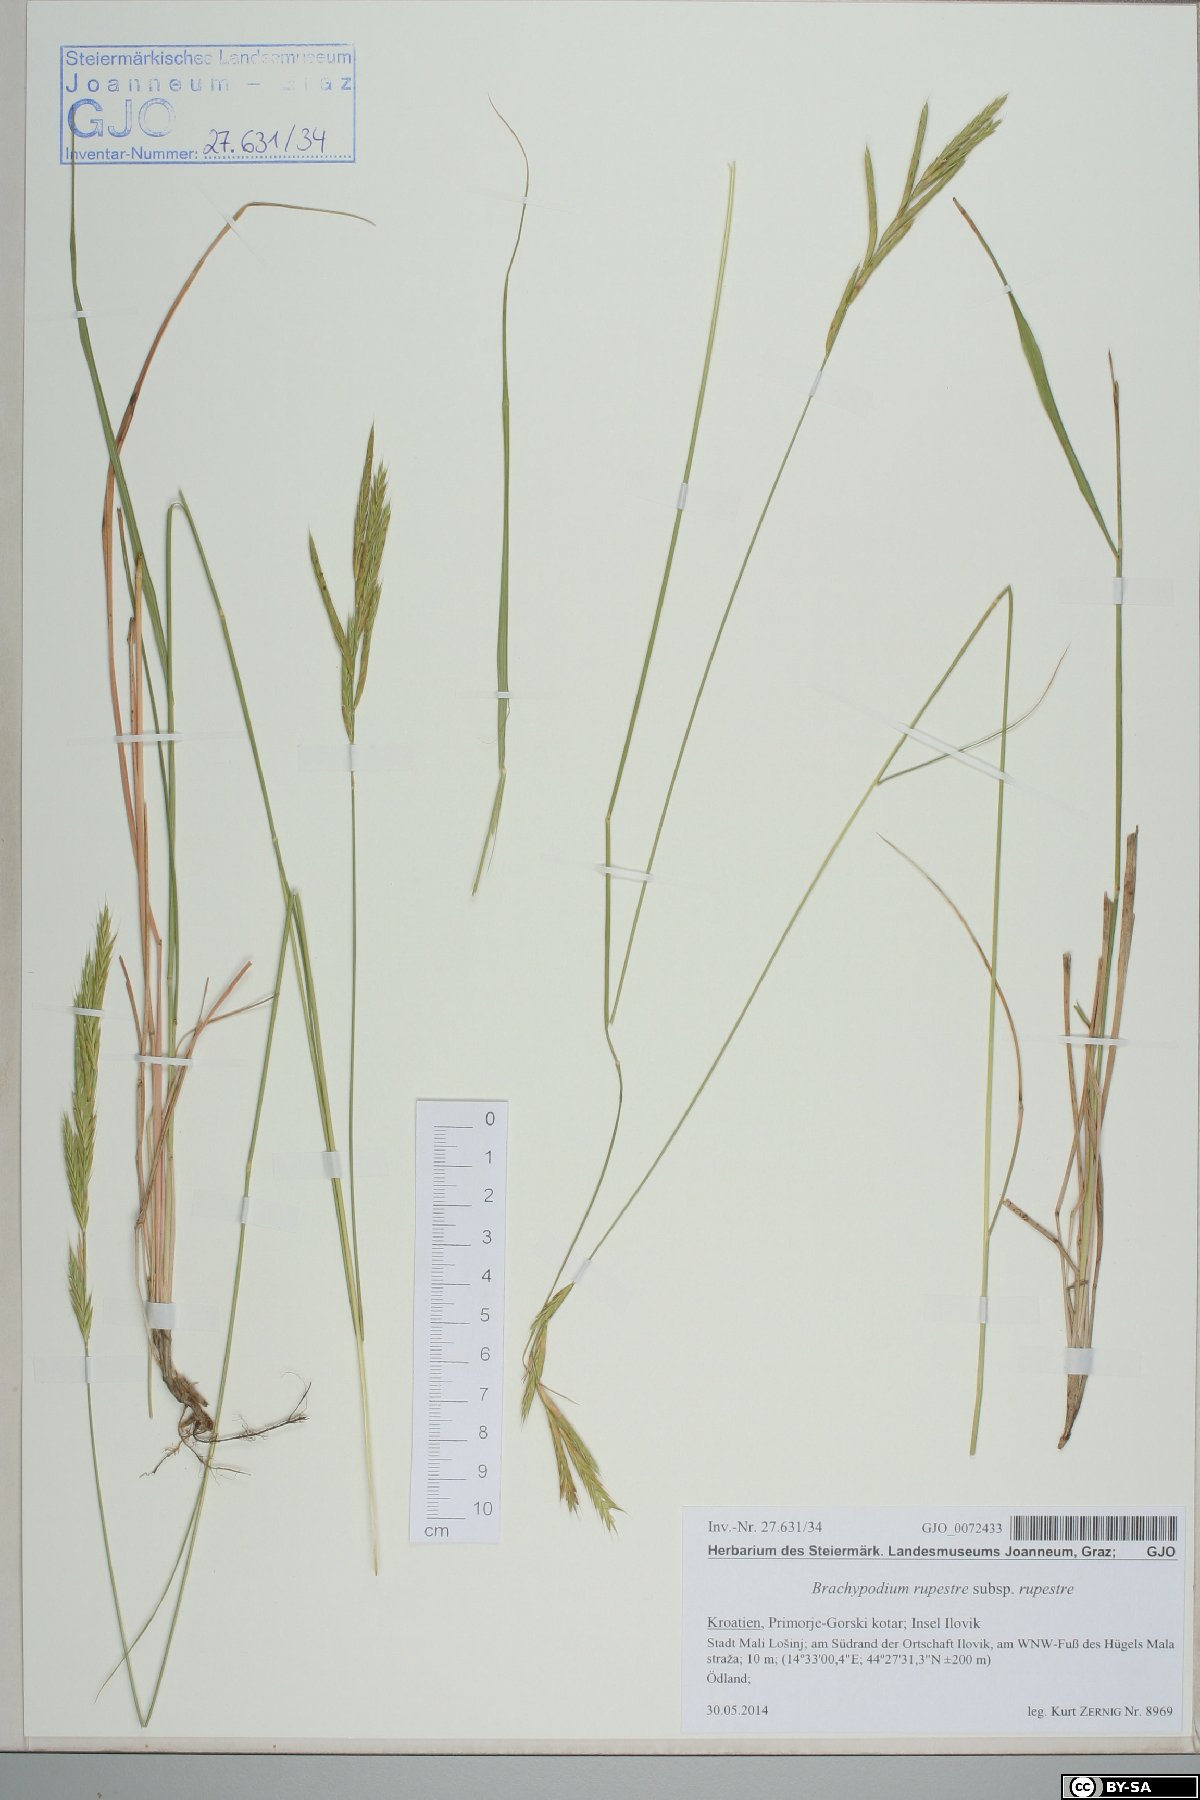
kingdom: Plantae
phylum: Tracheophyta
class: Liliopsida
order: Poales
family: Poaceae
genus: Brachypodium
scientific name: Brachypodium pinnatum
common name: Tor grass
